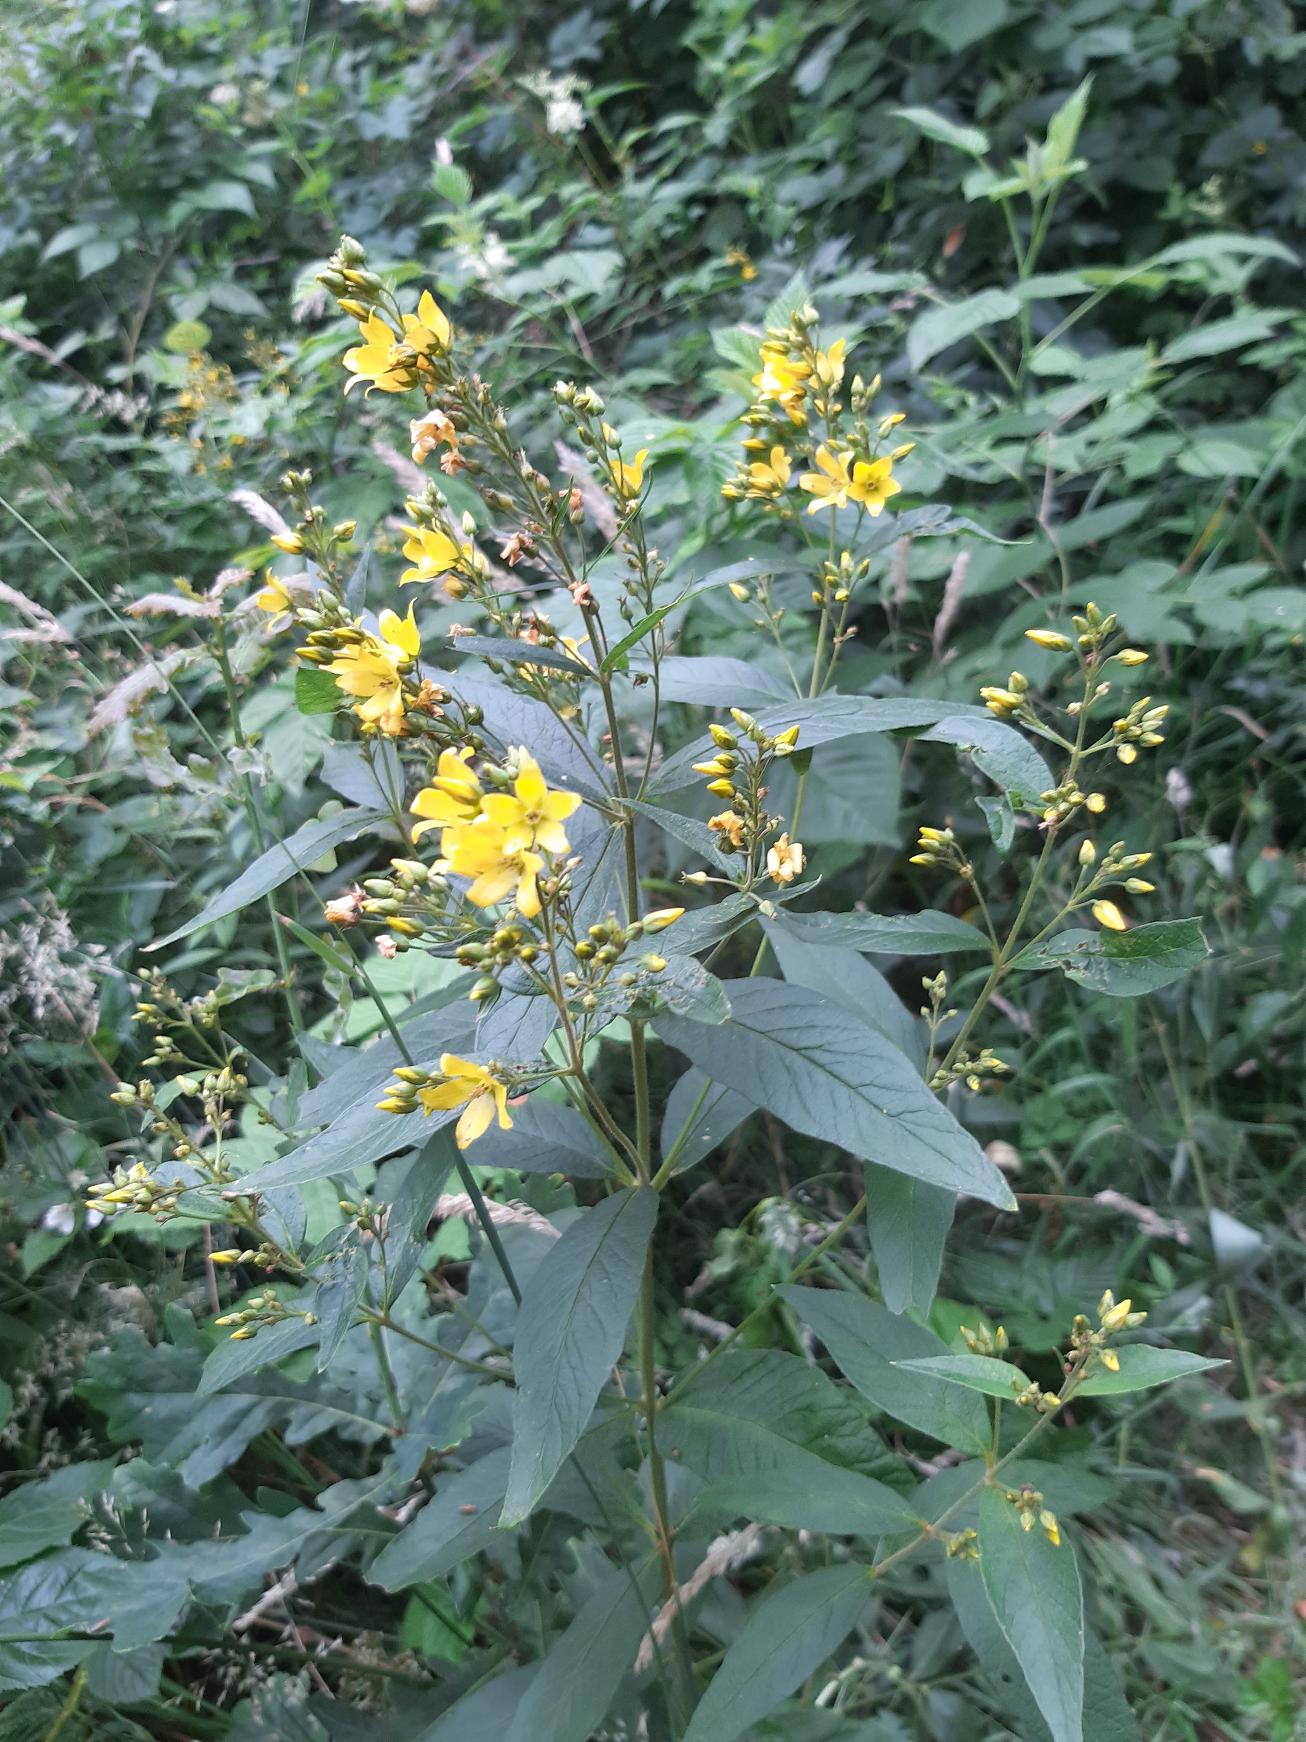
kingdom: Plantae
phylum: Tracheophyta
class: Magnoliopsida
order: Ericales
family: Primulaceae
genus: Lysimachia
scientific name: Lysimachia vulgaris
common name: Almindelig fredløs
